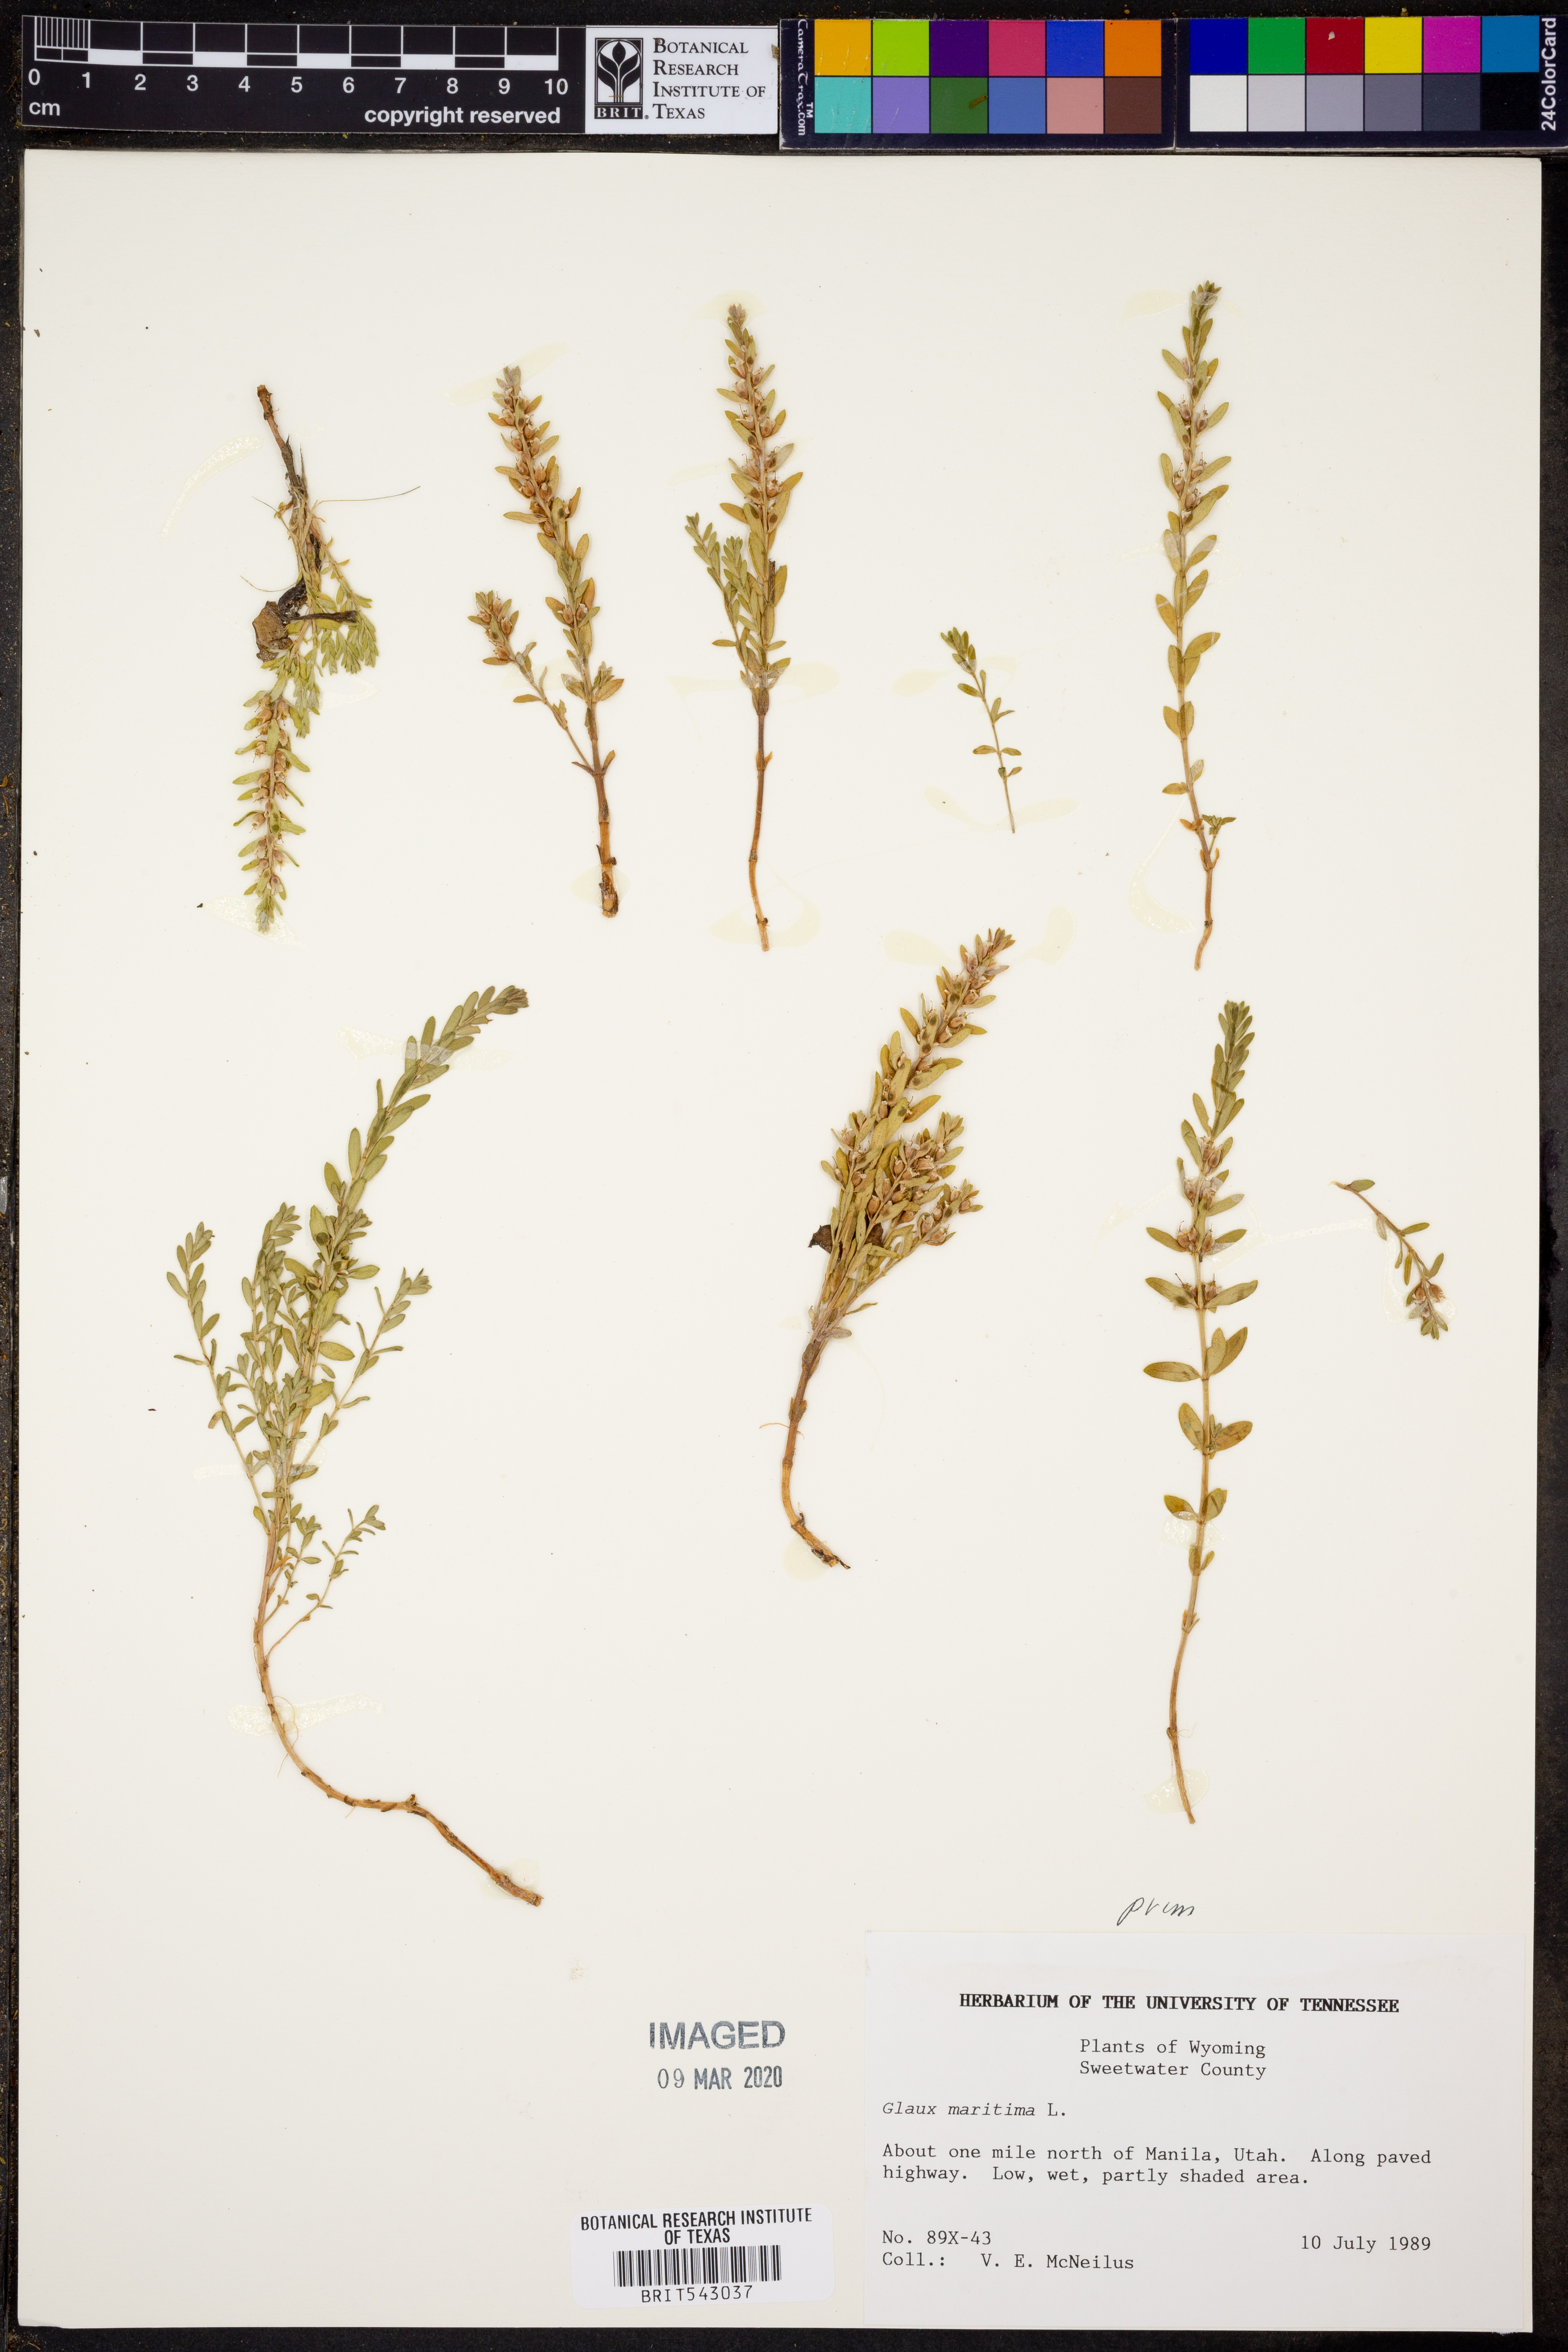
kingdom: Plantae
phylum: Tracheophyta
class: Magnoliopsida
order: Ericales
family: Primulaceae
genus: Lysimachia
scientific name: Lysimachia maritima
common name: Sea milkwort
